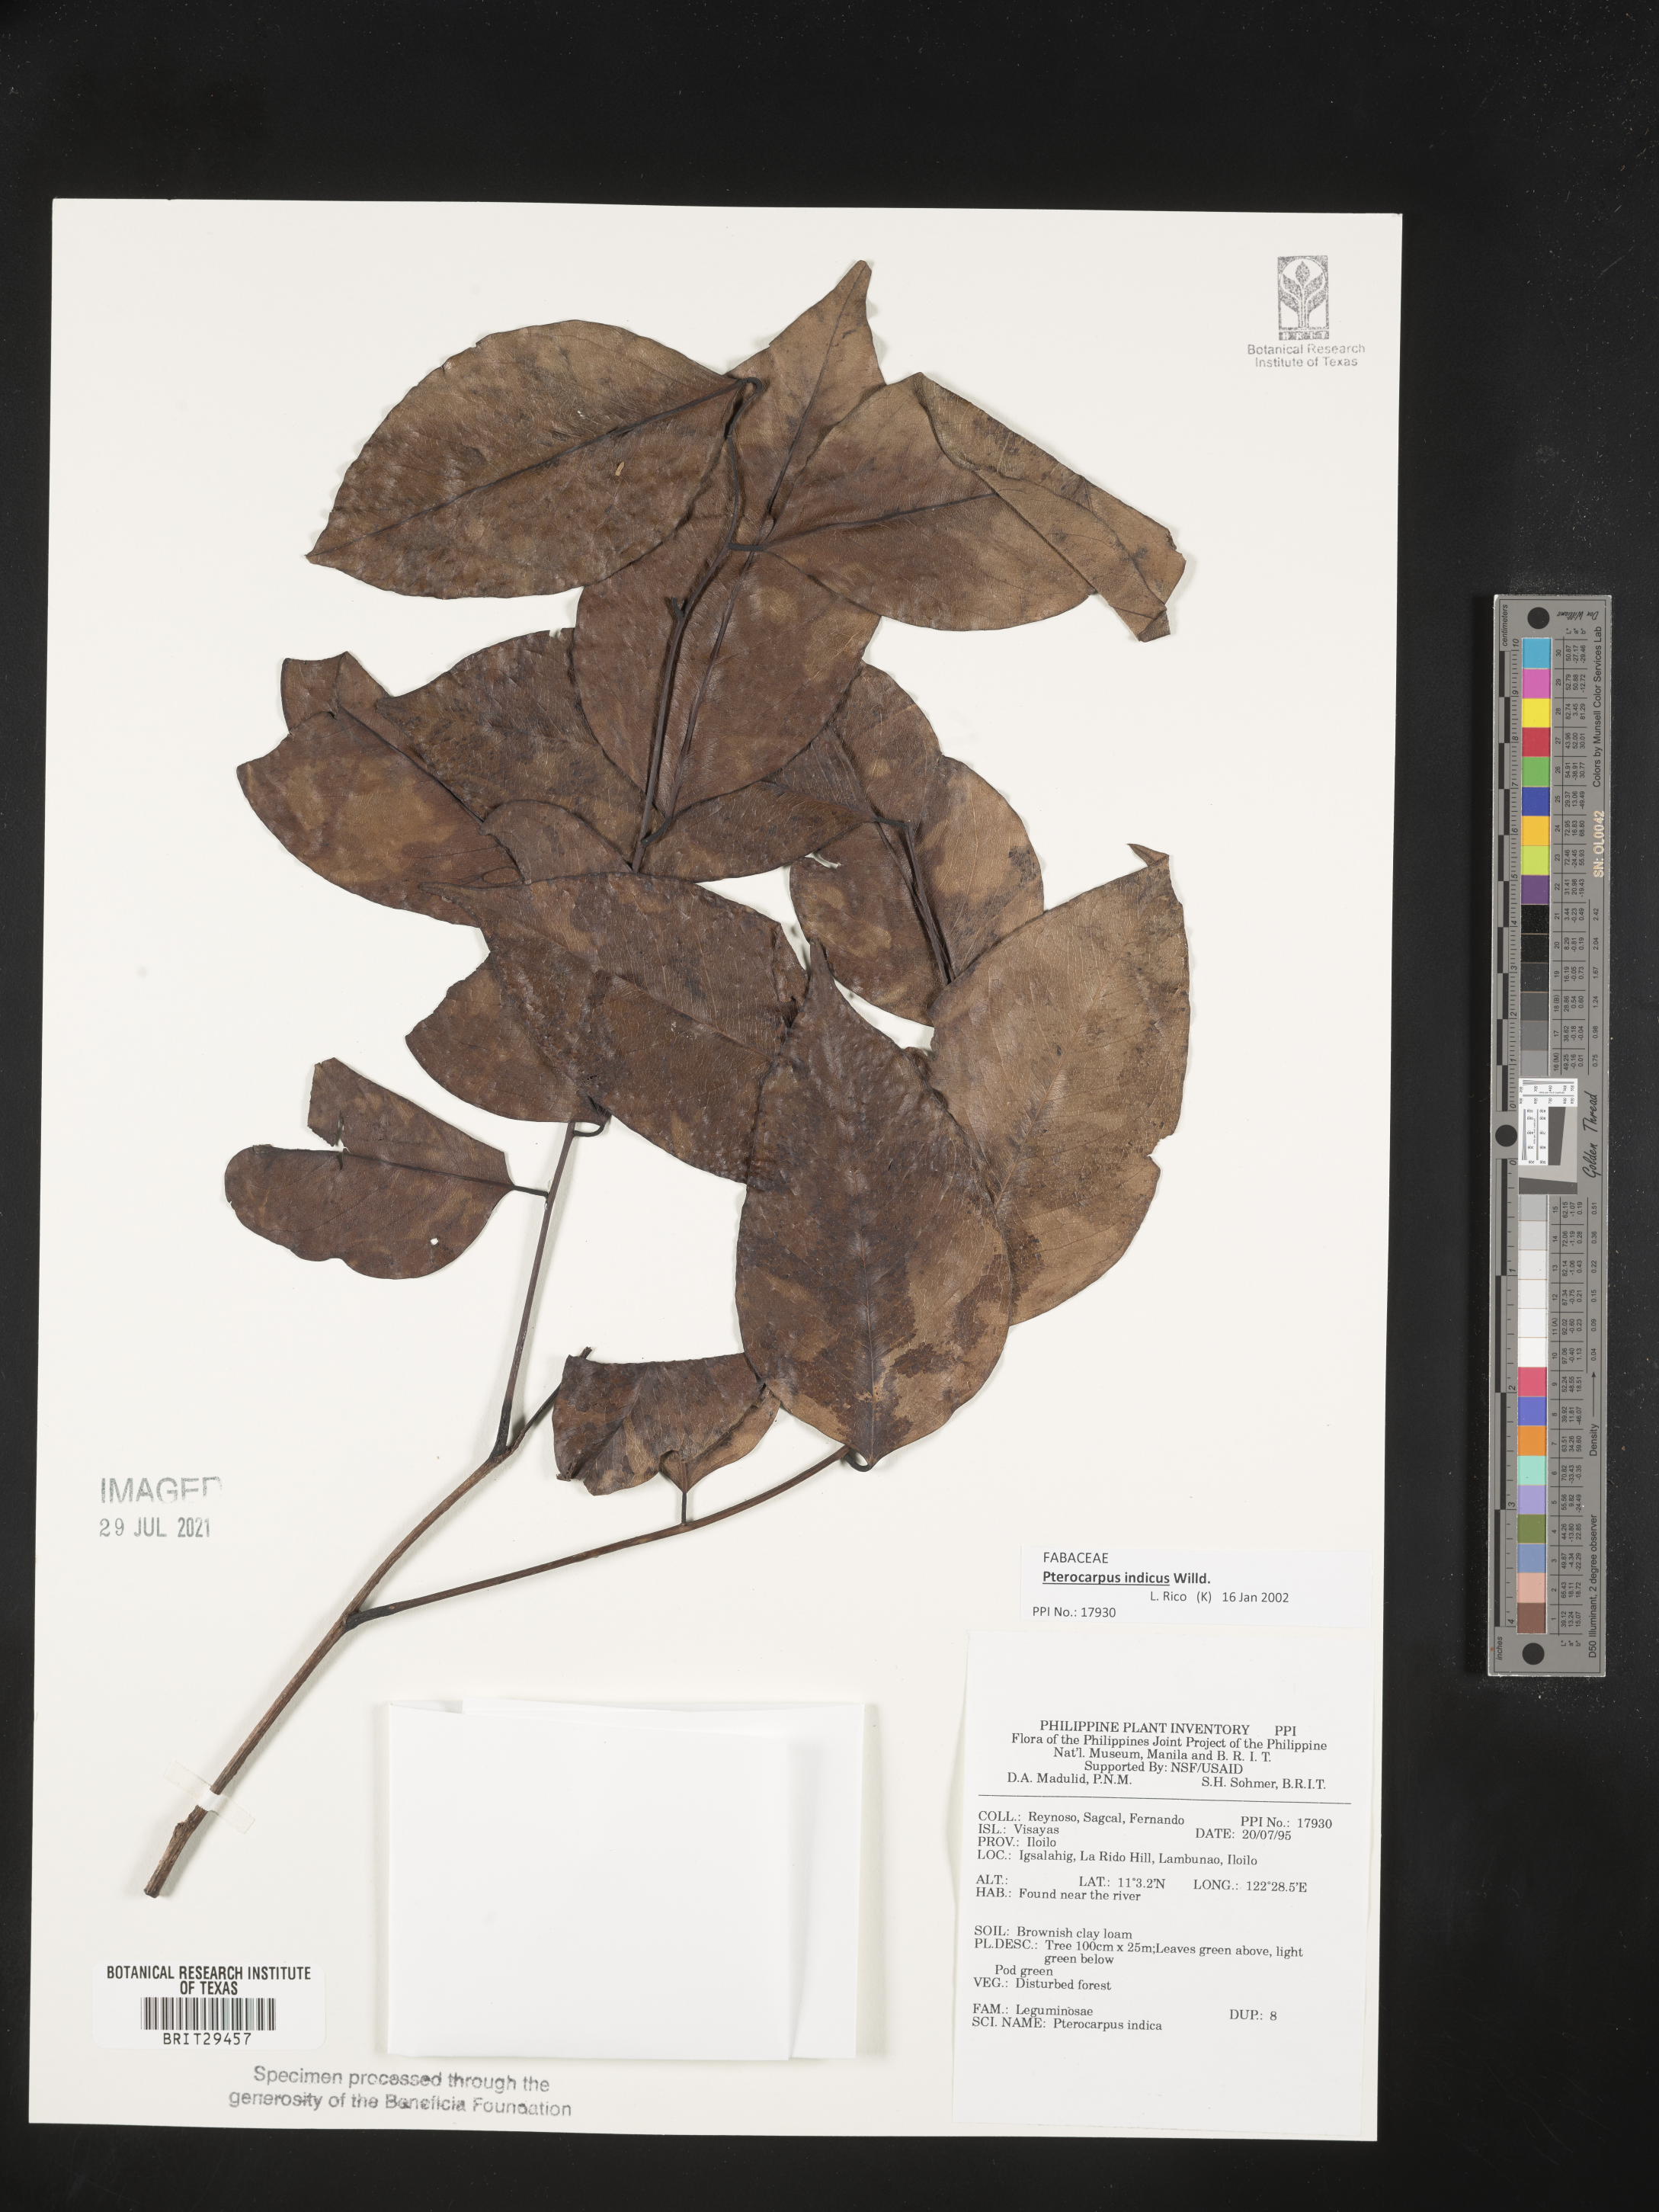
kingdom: Plantae
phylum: Tracheophyta
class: Magnoliopsida
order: Fabales
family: Fabaceae
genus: Pterocarpus
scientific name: Pterocarpus indicus
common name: Burmese rosewood
